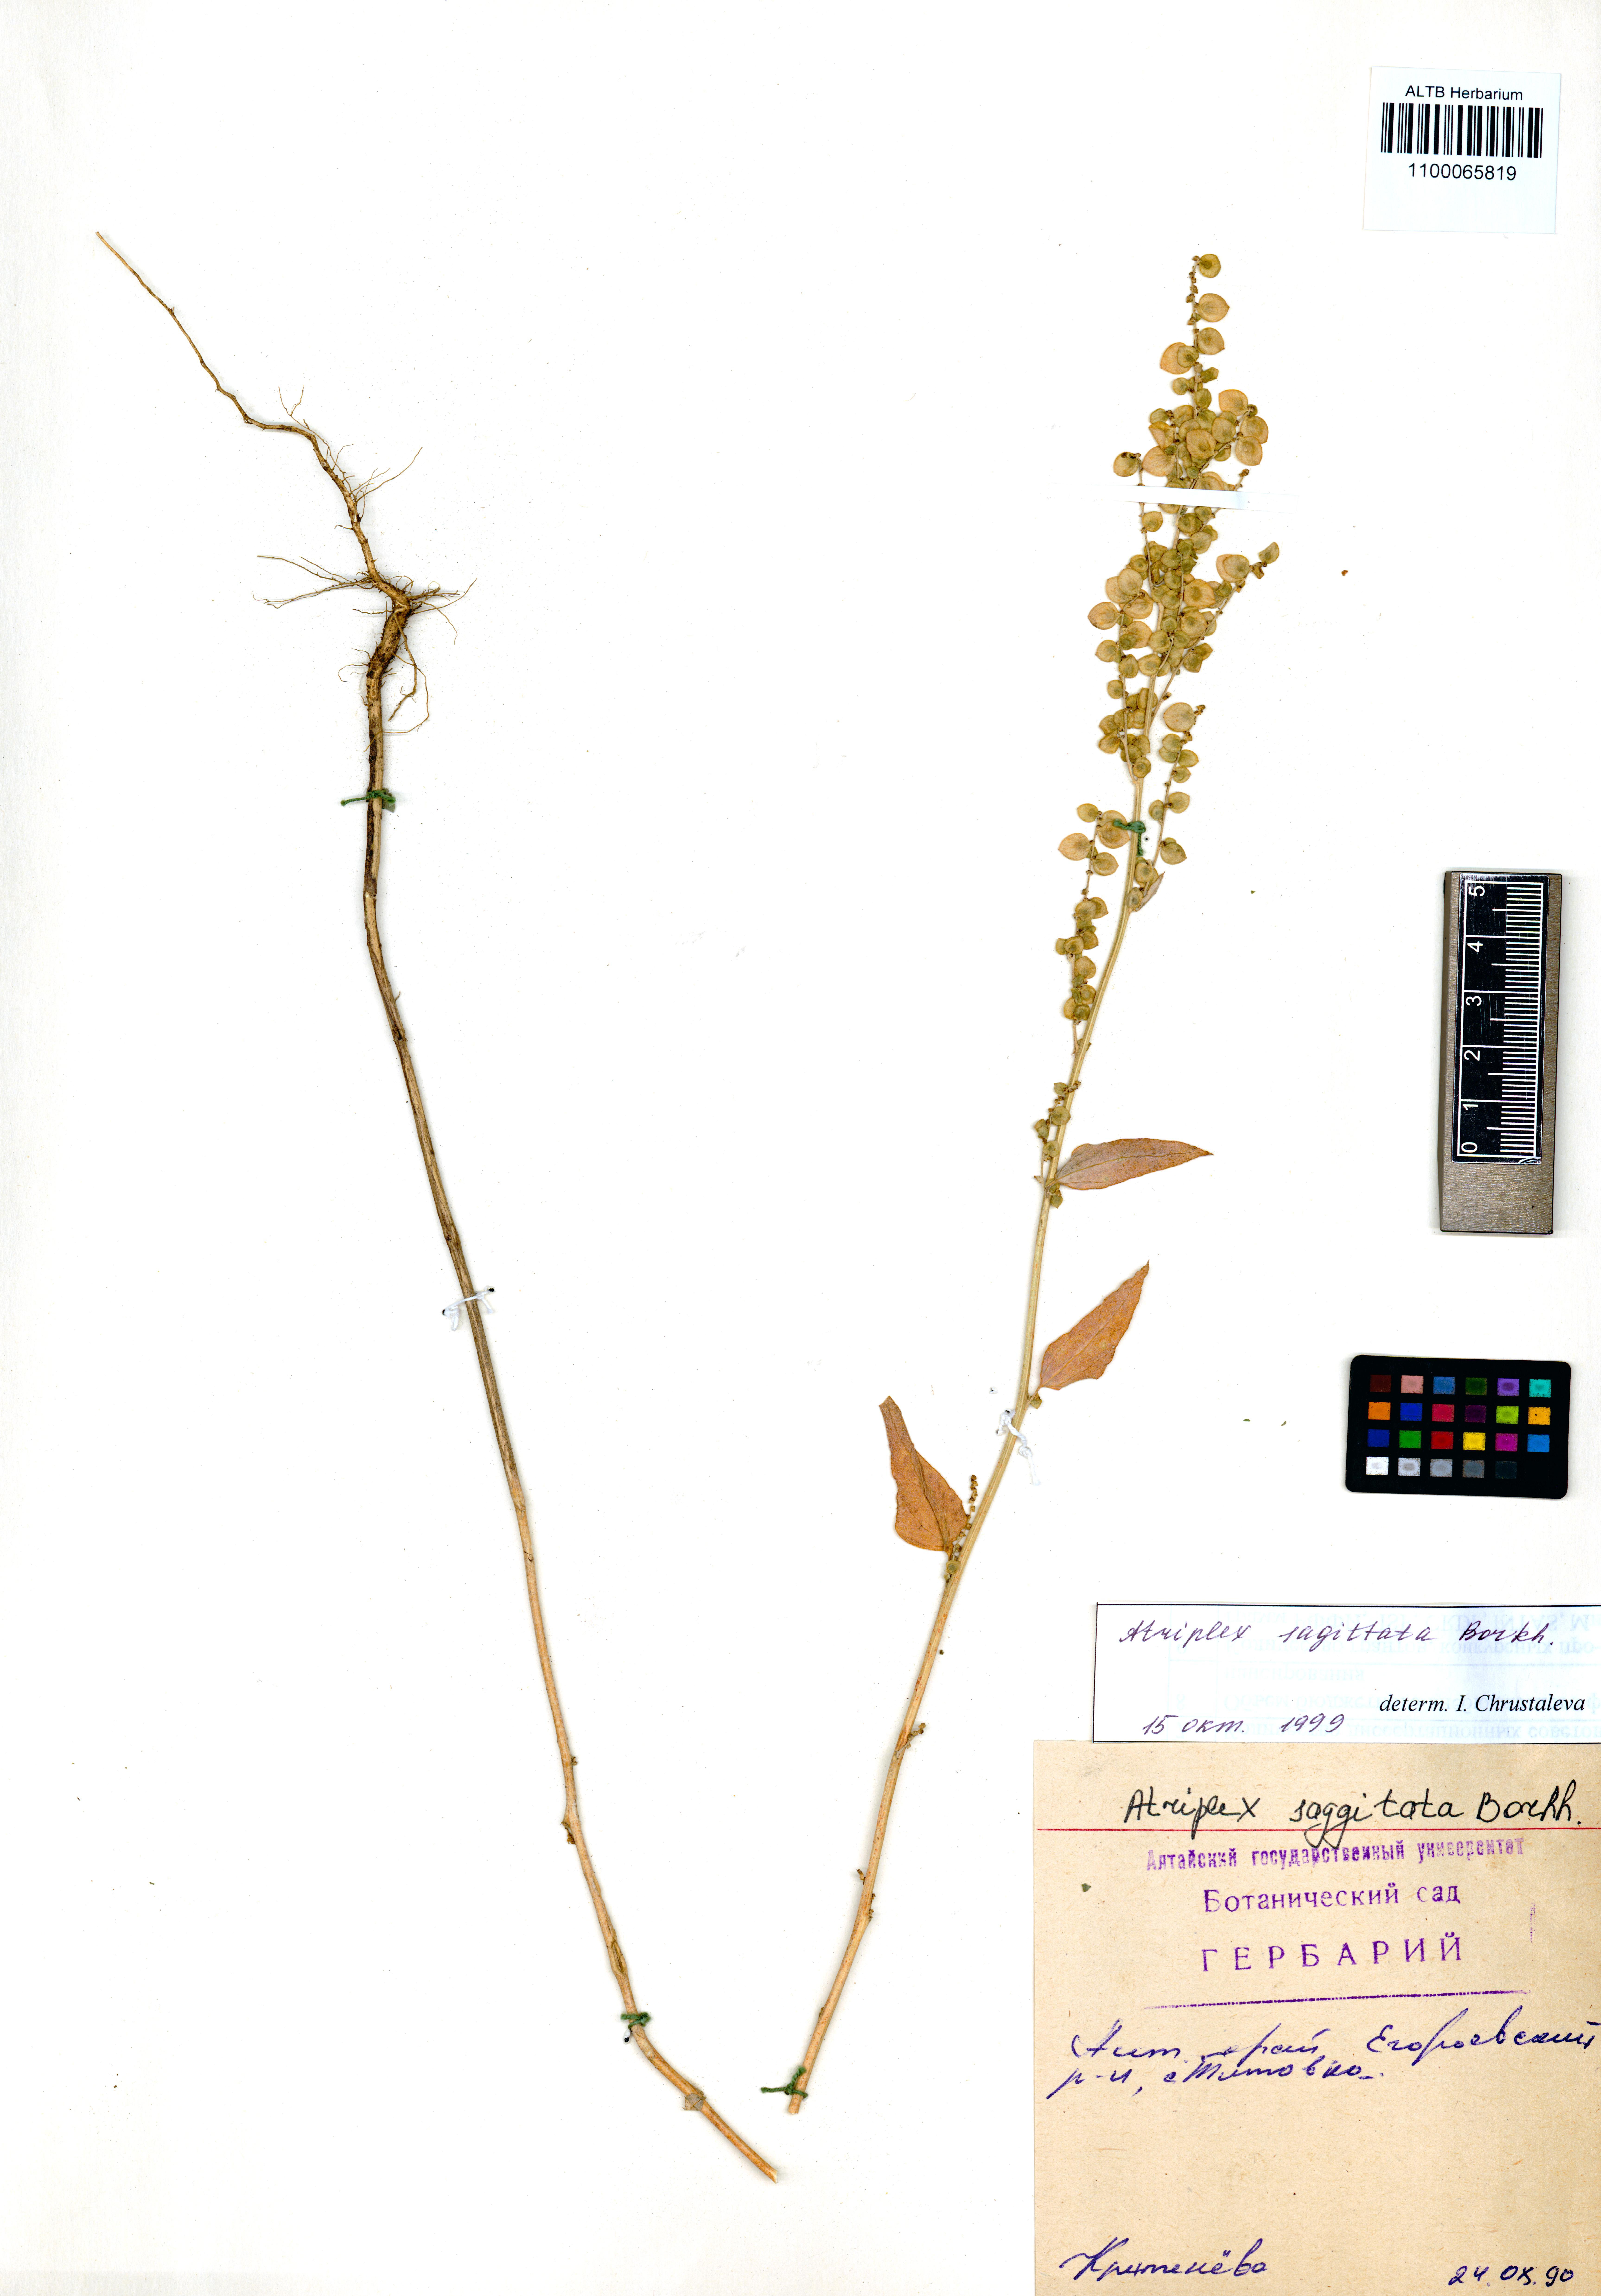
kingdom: Plantae
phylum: Tracheophyta
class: Magnoliopsida
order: Caryophyllales
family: Amaranthaceae
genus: Atriplex
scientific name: Atriplex sagittata
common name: Purple orache
